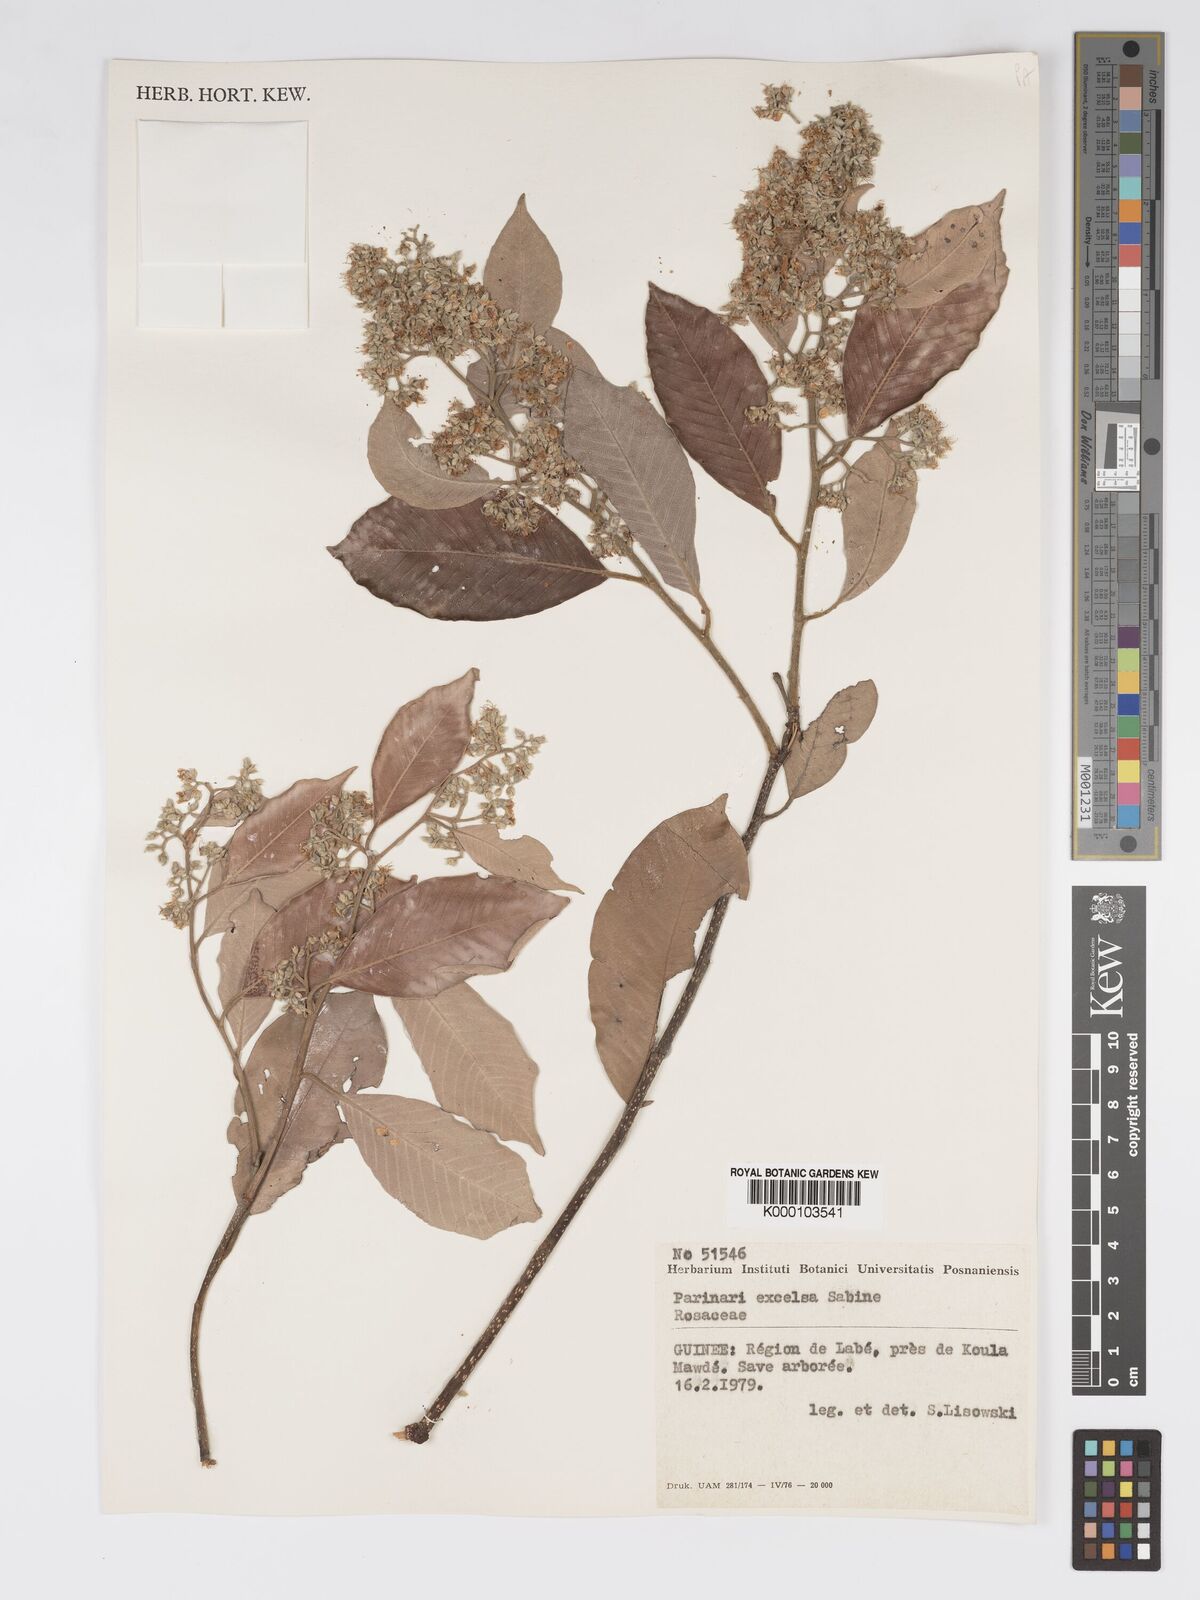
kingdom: Plantae
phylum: Tracheophyta
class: Magnoliopsida
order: Malpighiales
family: Chrysobalanaceae
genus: Parinari
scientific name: Parinari excelsa
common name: Guinea-plum
